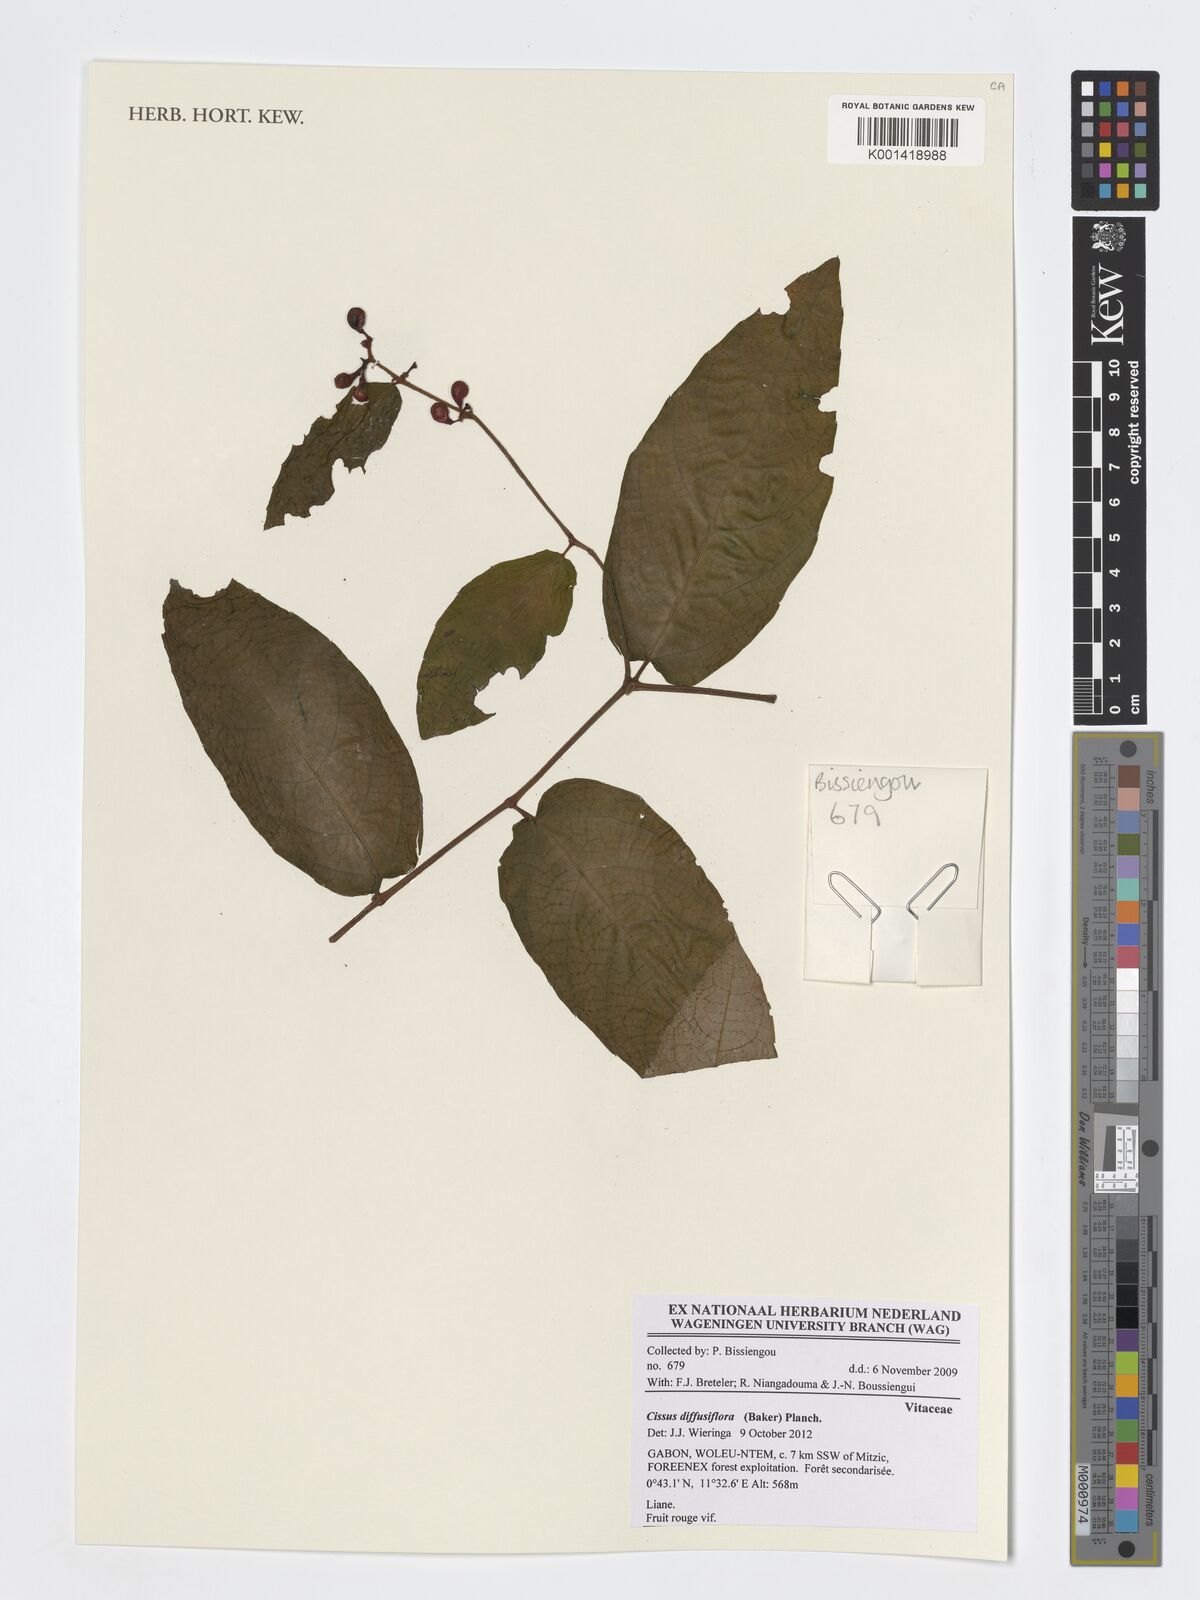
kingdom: Plantae
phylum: Tracheophyta
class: Magnoliopsida
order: Vitales
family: Vitaceae
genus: Cissus
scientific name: Cissus diffusiflora
